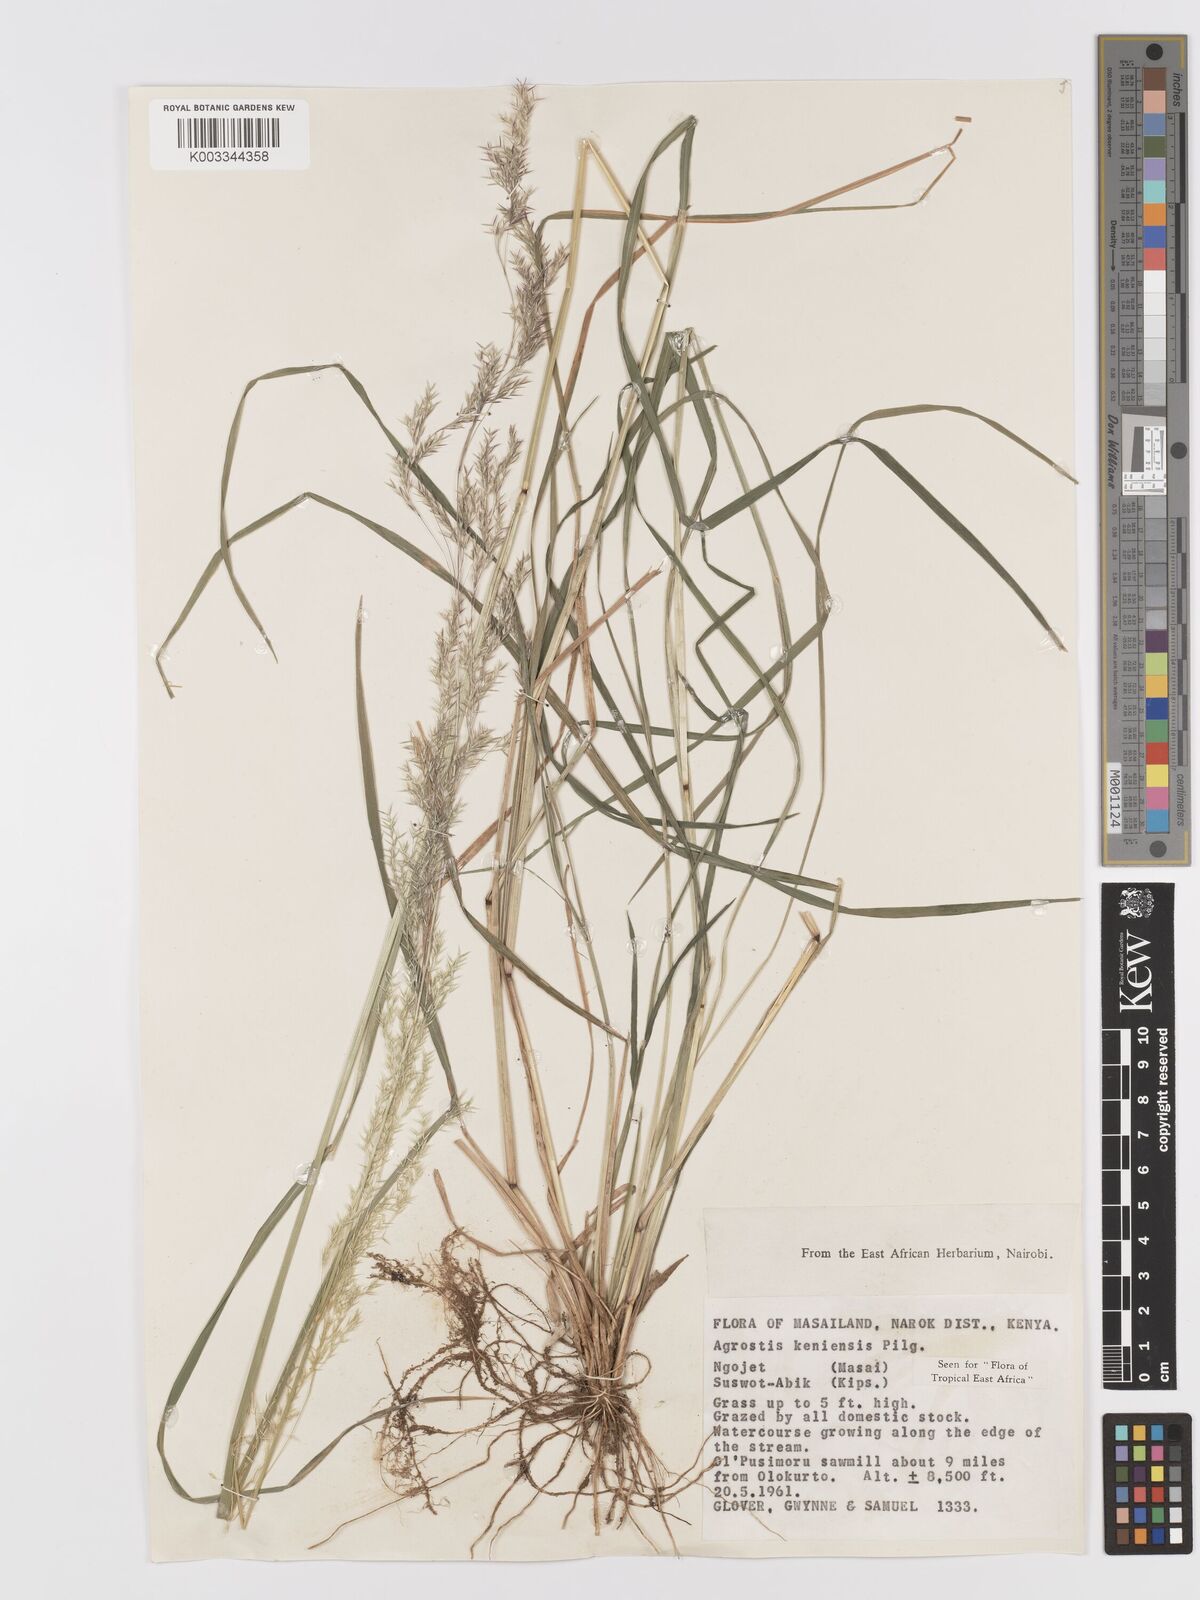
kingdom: Plantae
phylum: Tracheophyta
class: Liliopsida
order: Poales
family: Poaceae
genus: Agrostis
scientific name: Agrostis keniensis
